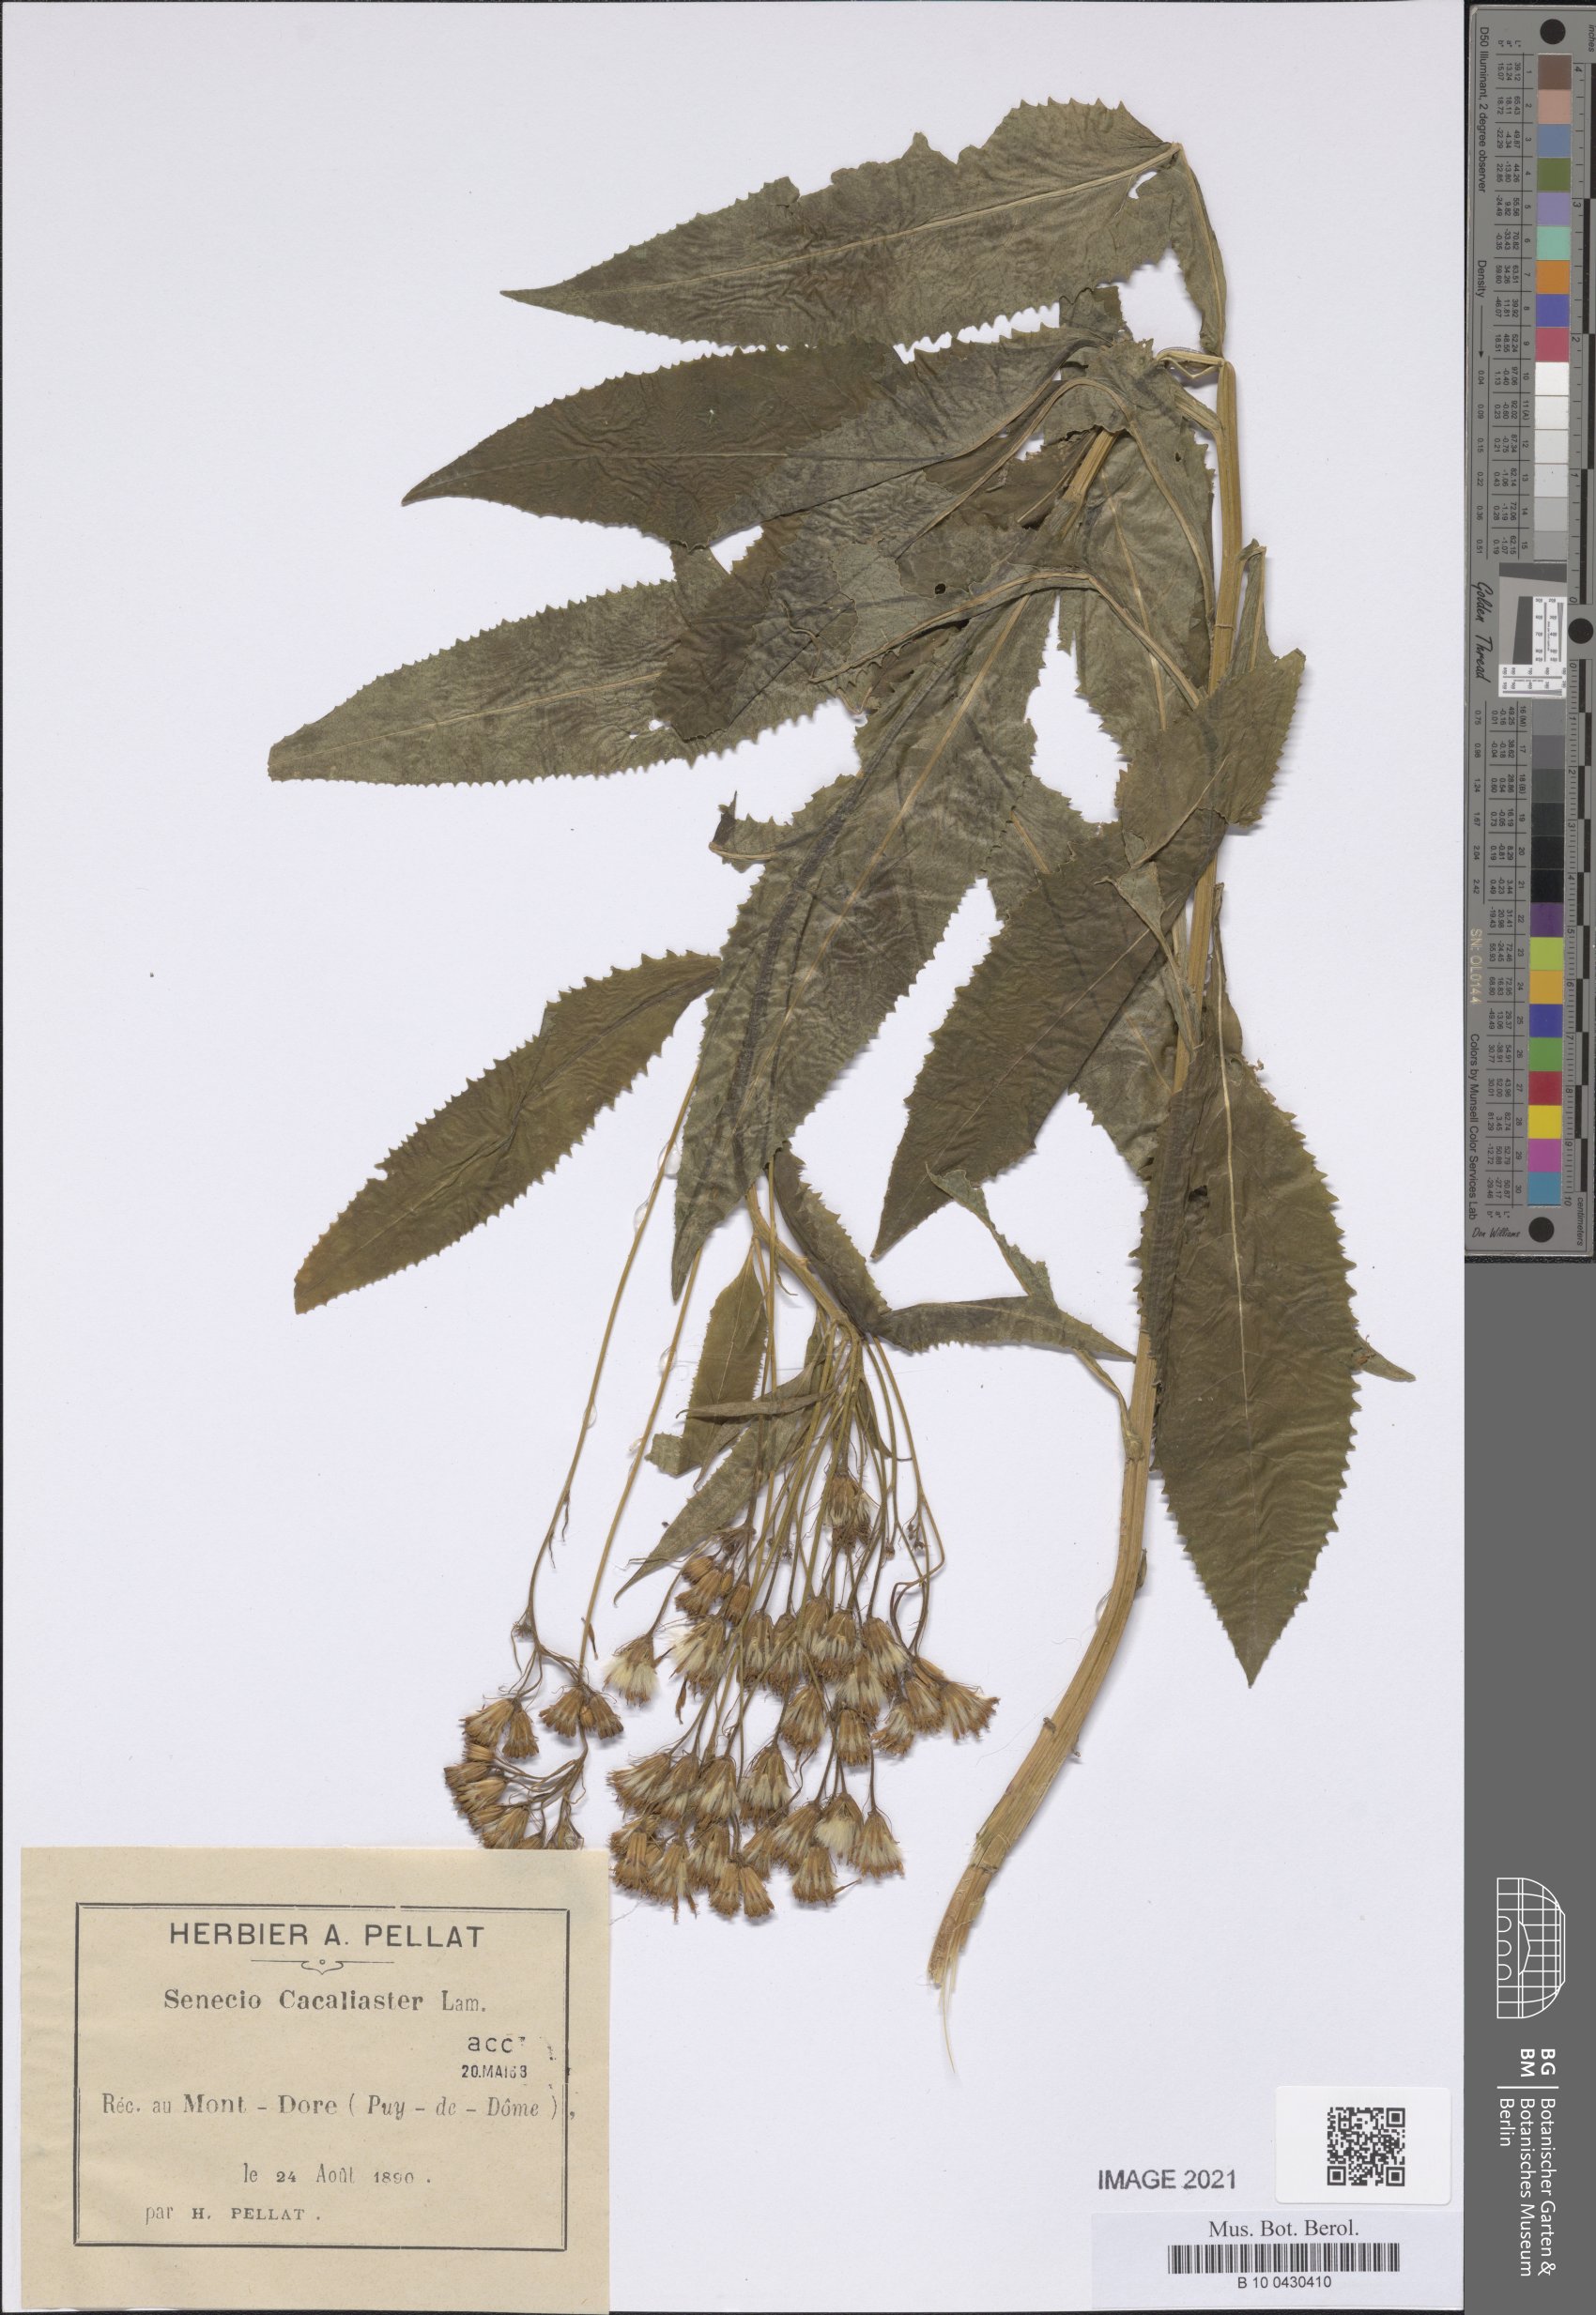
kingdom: Plantae
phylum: Tracheophyta
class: Magnoliopsida
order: Asterales
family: Asteraceae
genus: Senecio
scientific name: Senecio cacaliaster
